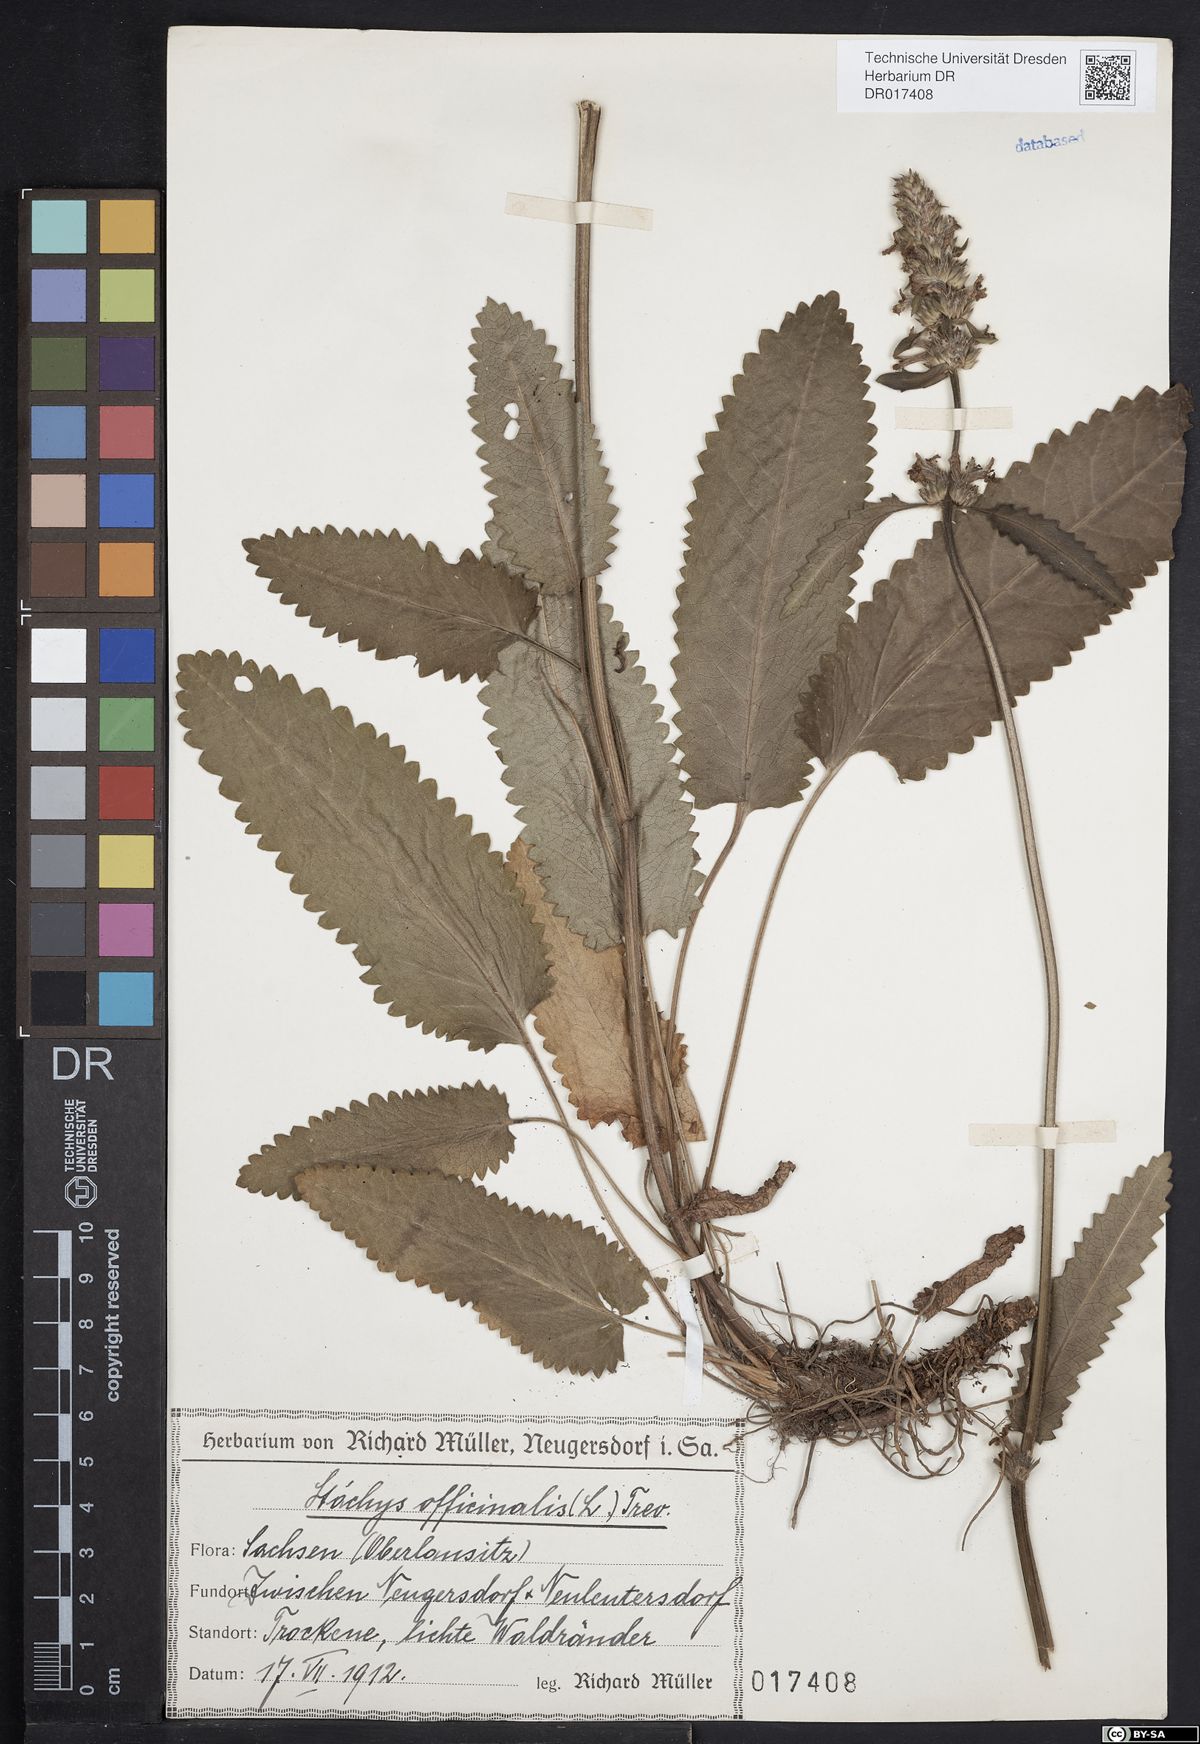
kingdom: Plantae
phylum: Tracheophyta
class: Magnoliopsida
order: Lamiales
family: Lamiaceae
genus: Betonica
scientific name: Betonica officinalis
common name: Bishop's-wort
